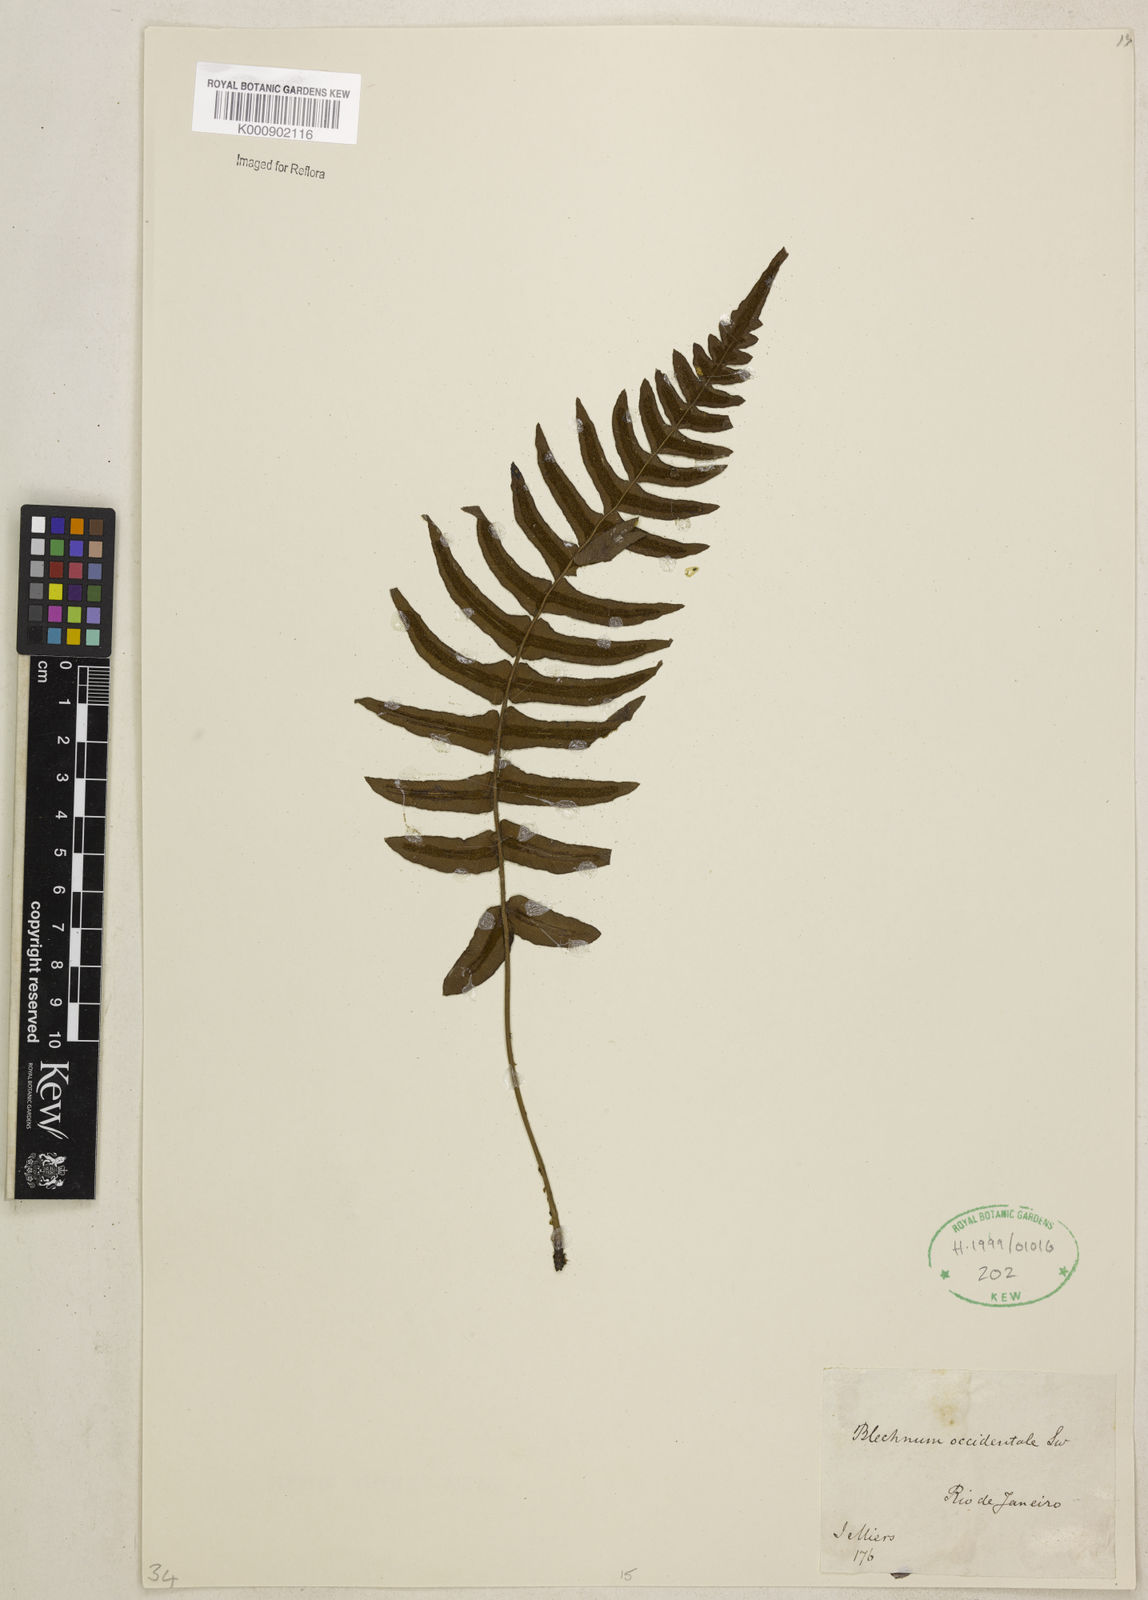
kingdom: Plantae
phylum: Tracheophyta
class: Polypodiopsida
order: Polypodiales
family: Blechnaceae
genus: Blechnum
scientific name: Blechnum occidentale
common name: Hammock fern
